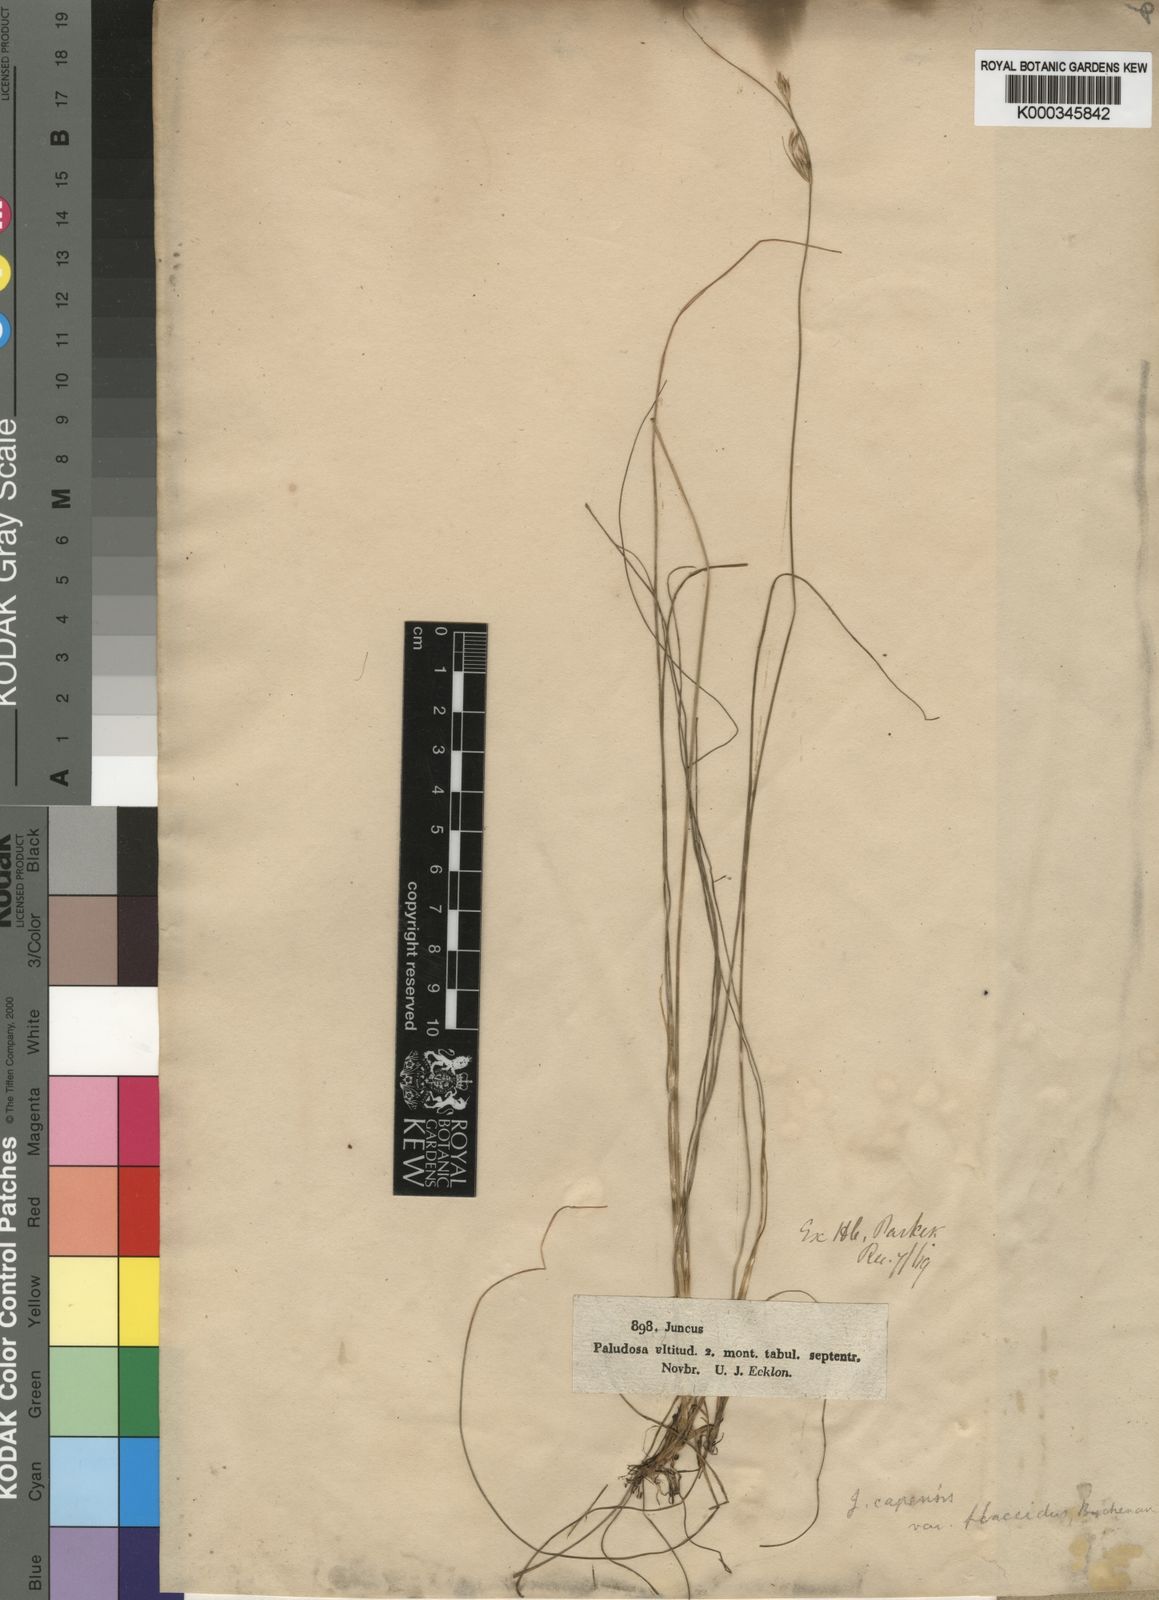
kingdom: Plantae
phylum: Tracheophyta
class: Liliopsida
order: Poales
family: Juncaceae
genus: Juncus
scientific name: Juncus capensis
